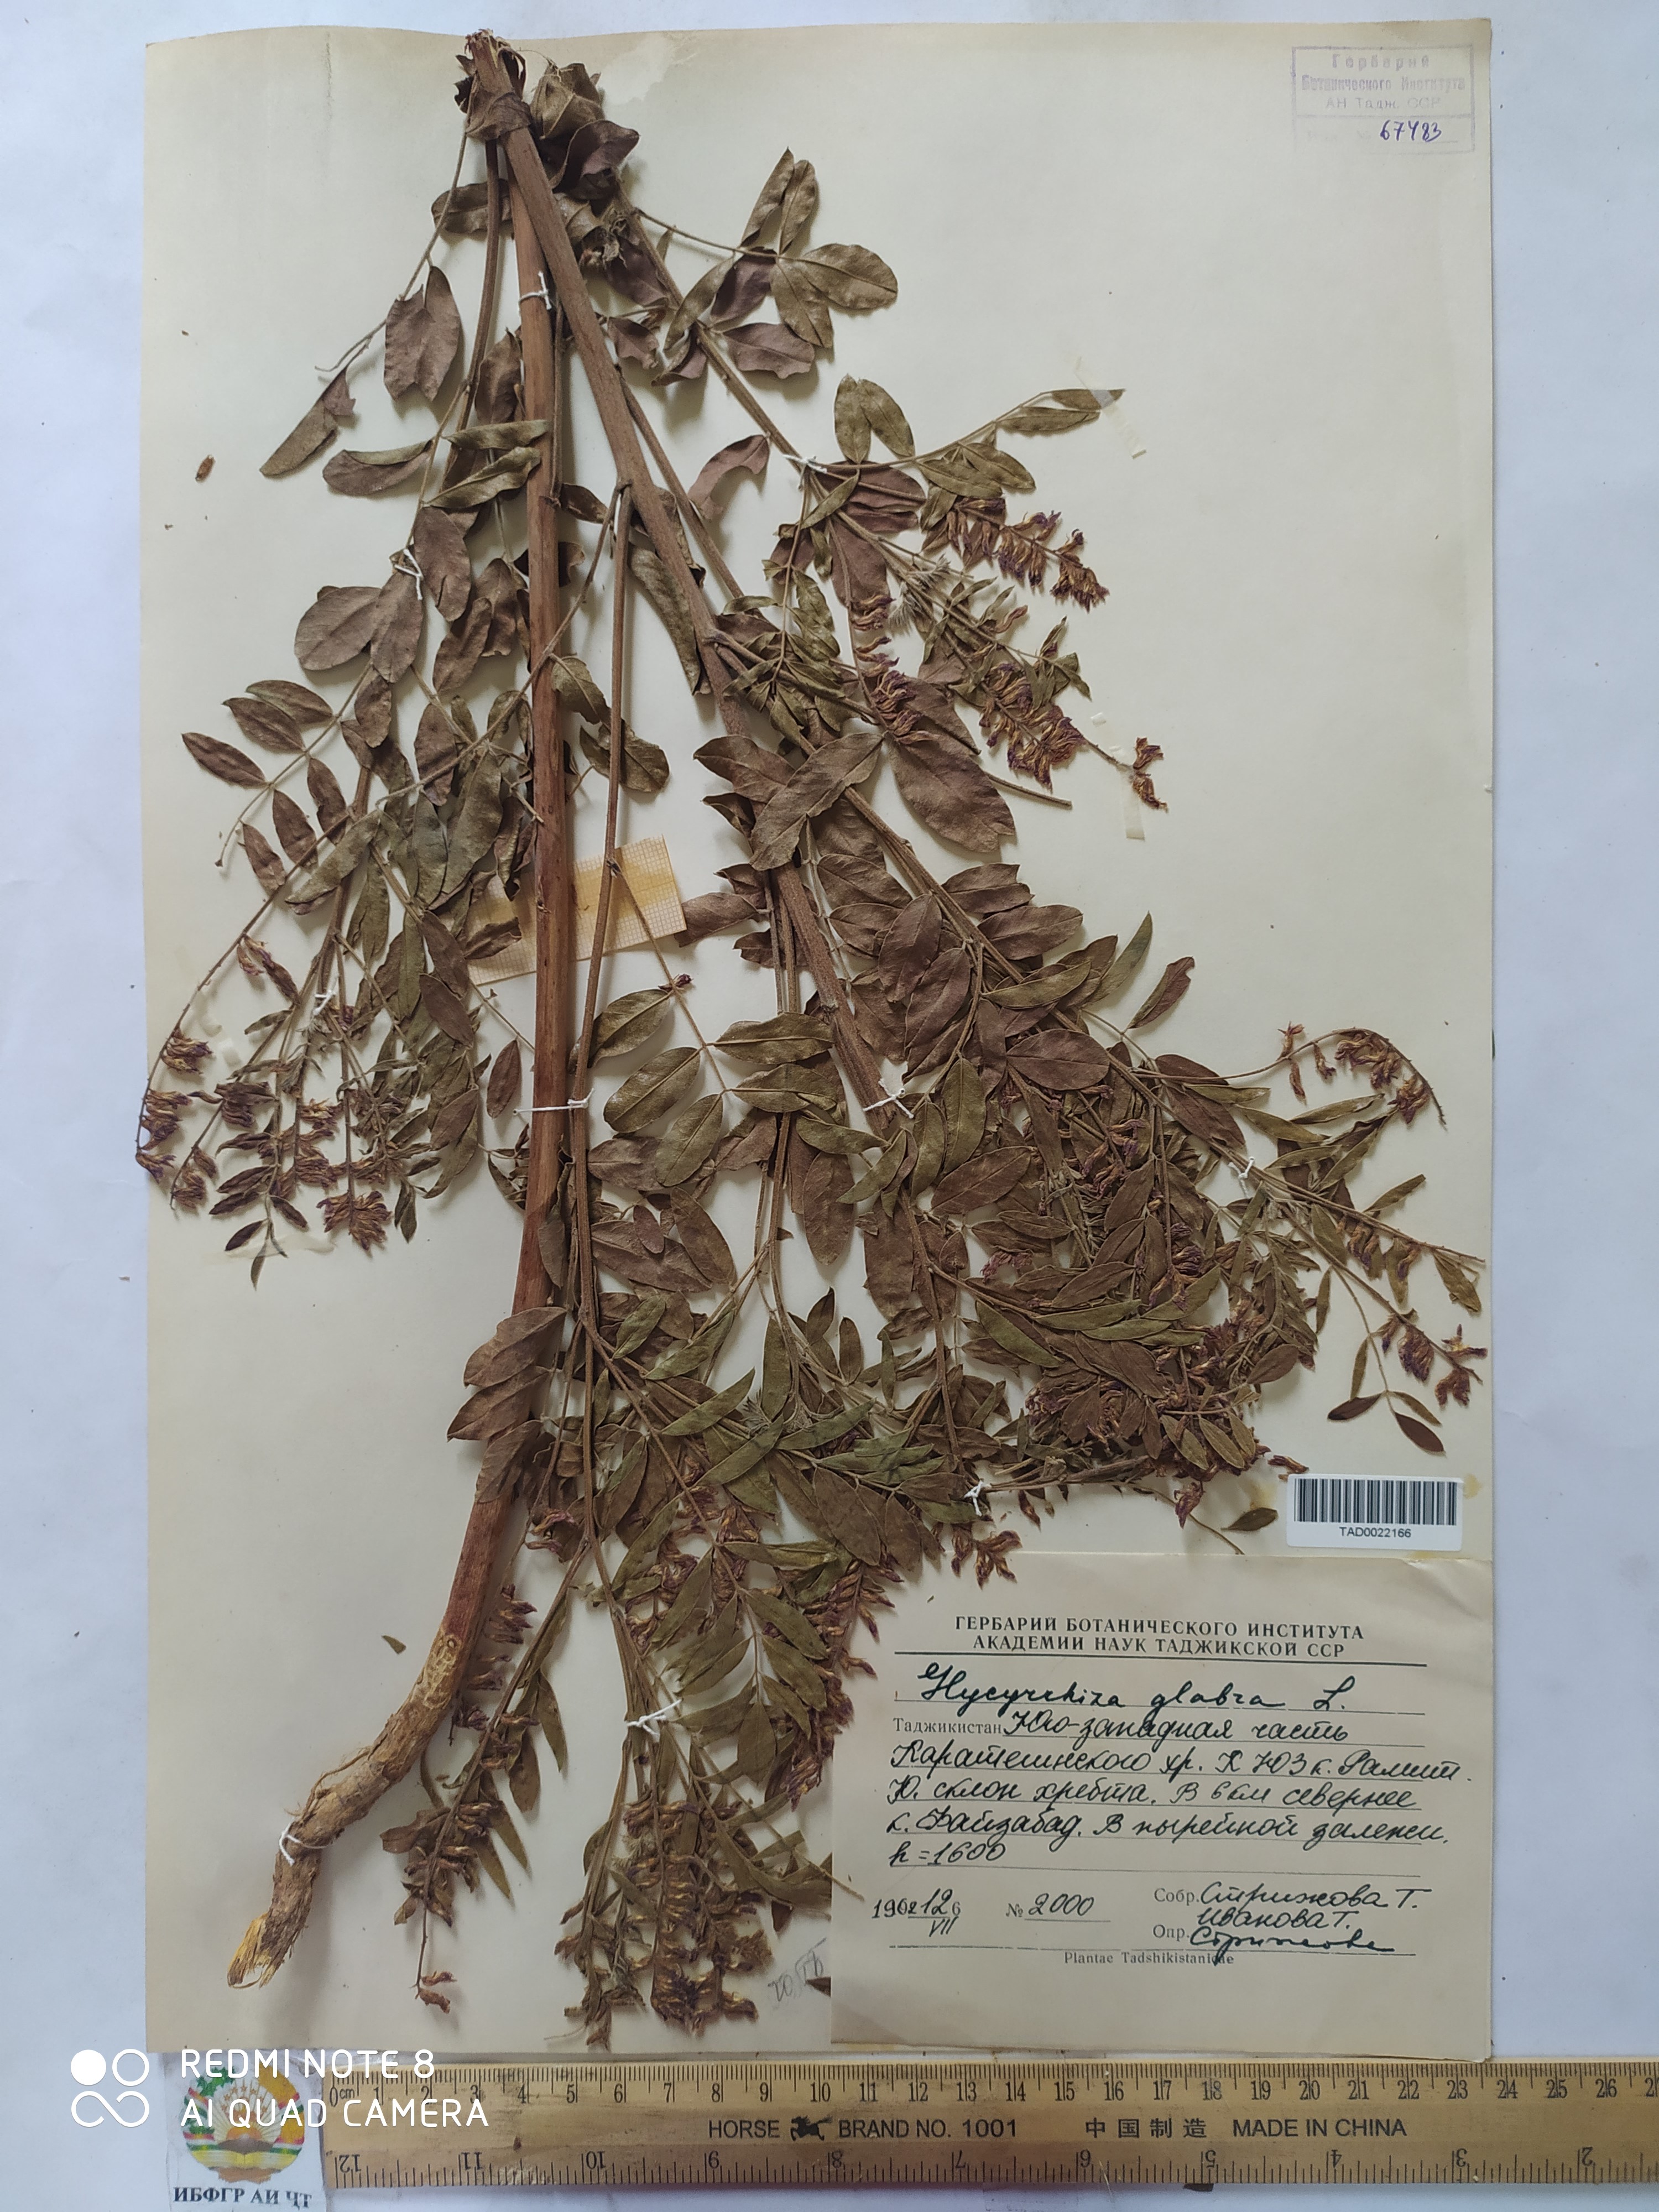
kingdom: Plantae
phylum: Tracheophyta
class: Magnoliopsida
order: Fabales
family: Fabaceae
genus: Glycyrrhiza
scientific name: Glycyrrhiza glabra
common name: Liquorice
